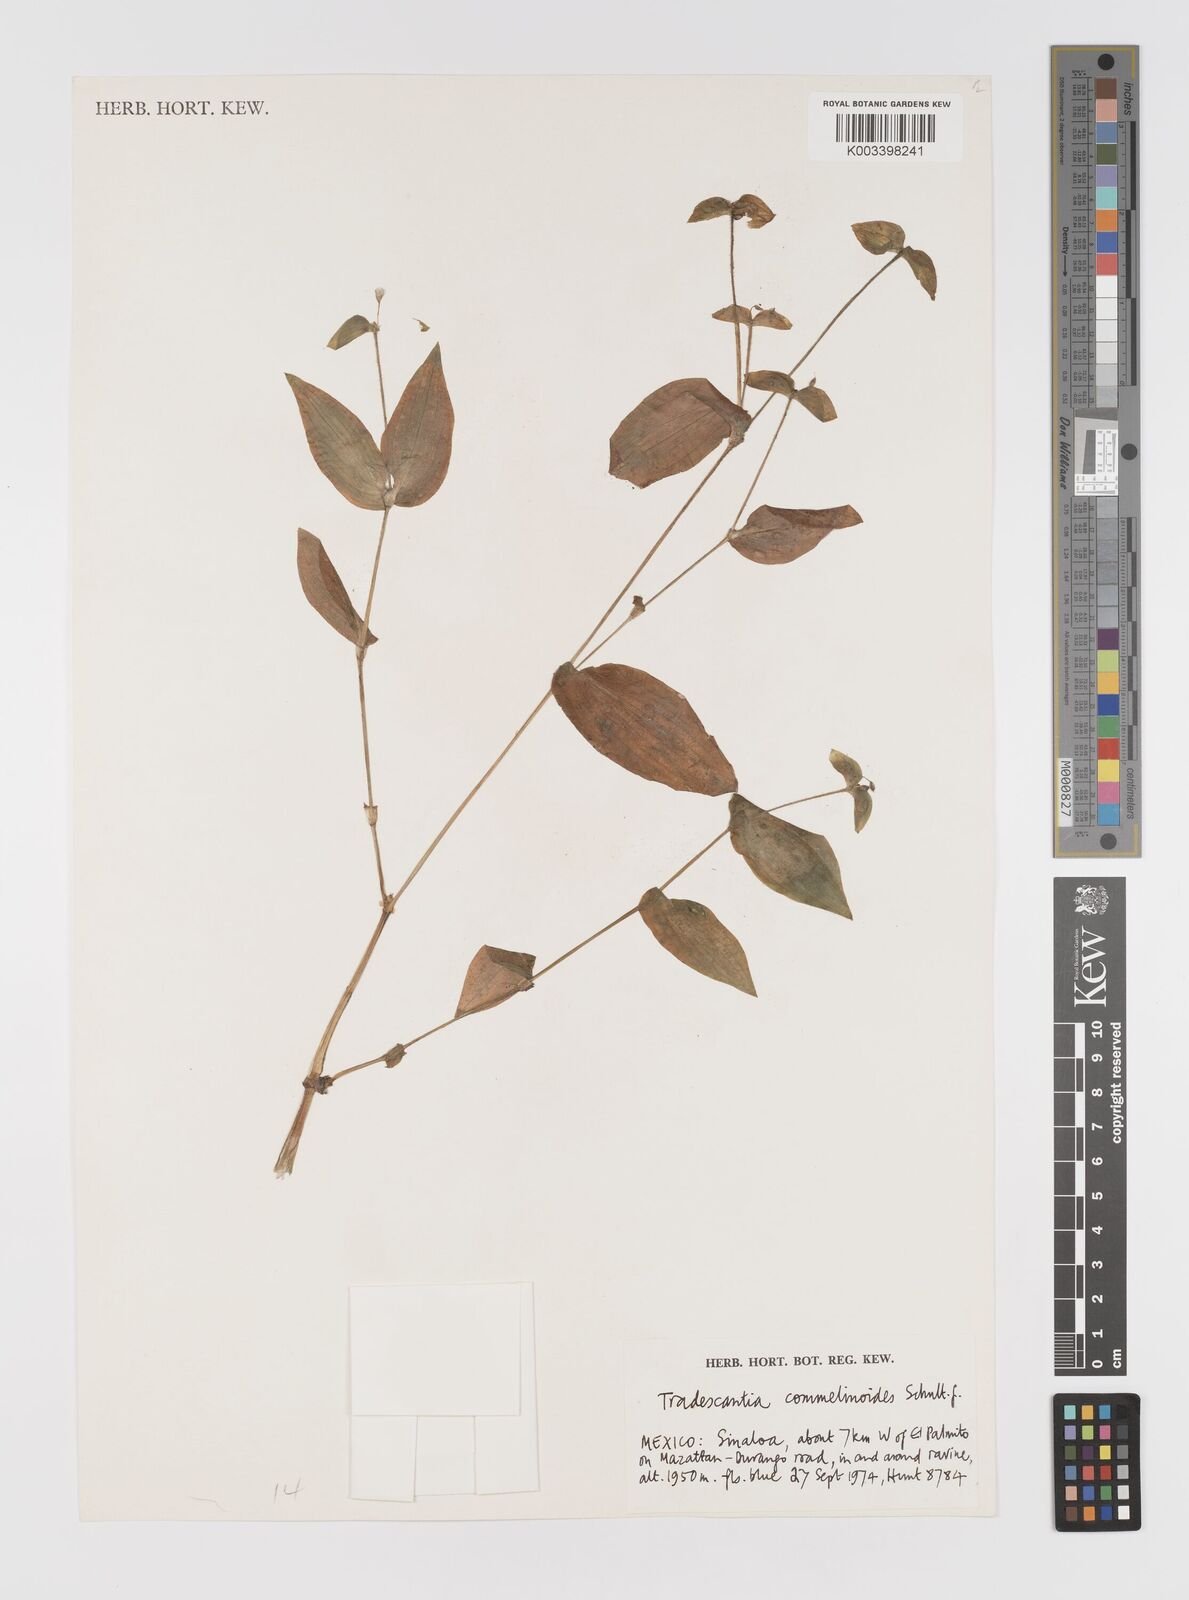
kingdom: Plantae
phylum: Tracheophyta
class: Liliopsida
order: Commelinales
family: Commelinaceae
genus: Tradescantia
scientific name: Tradescantia commelinoides
